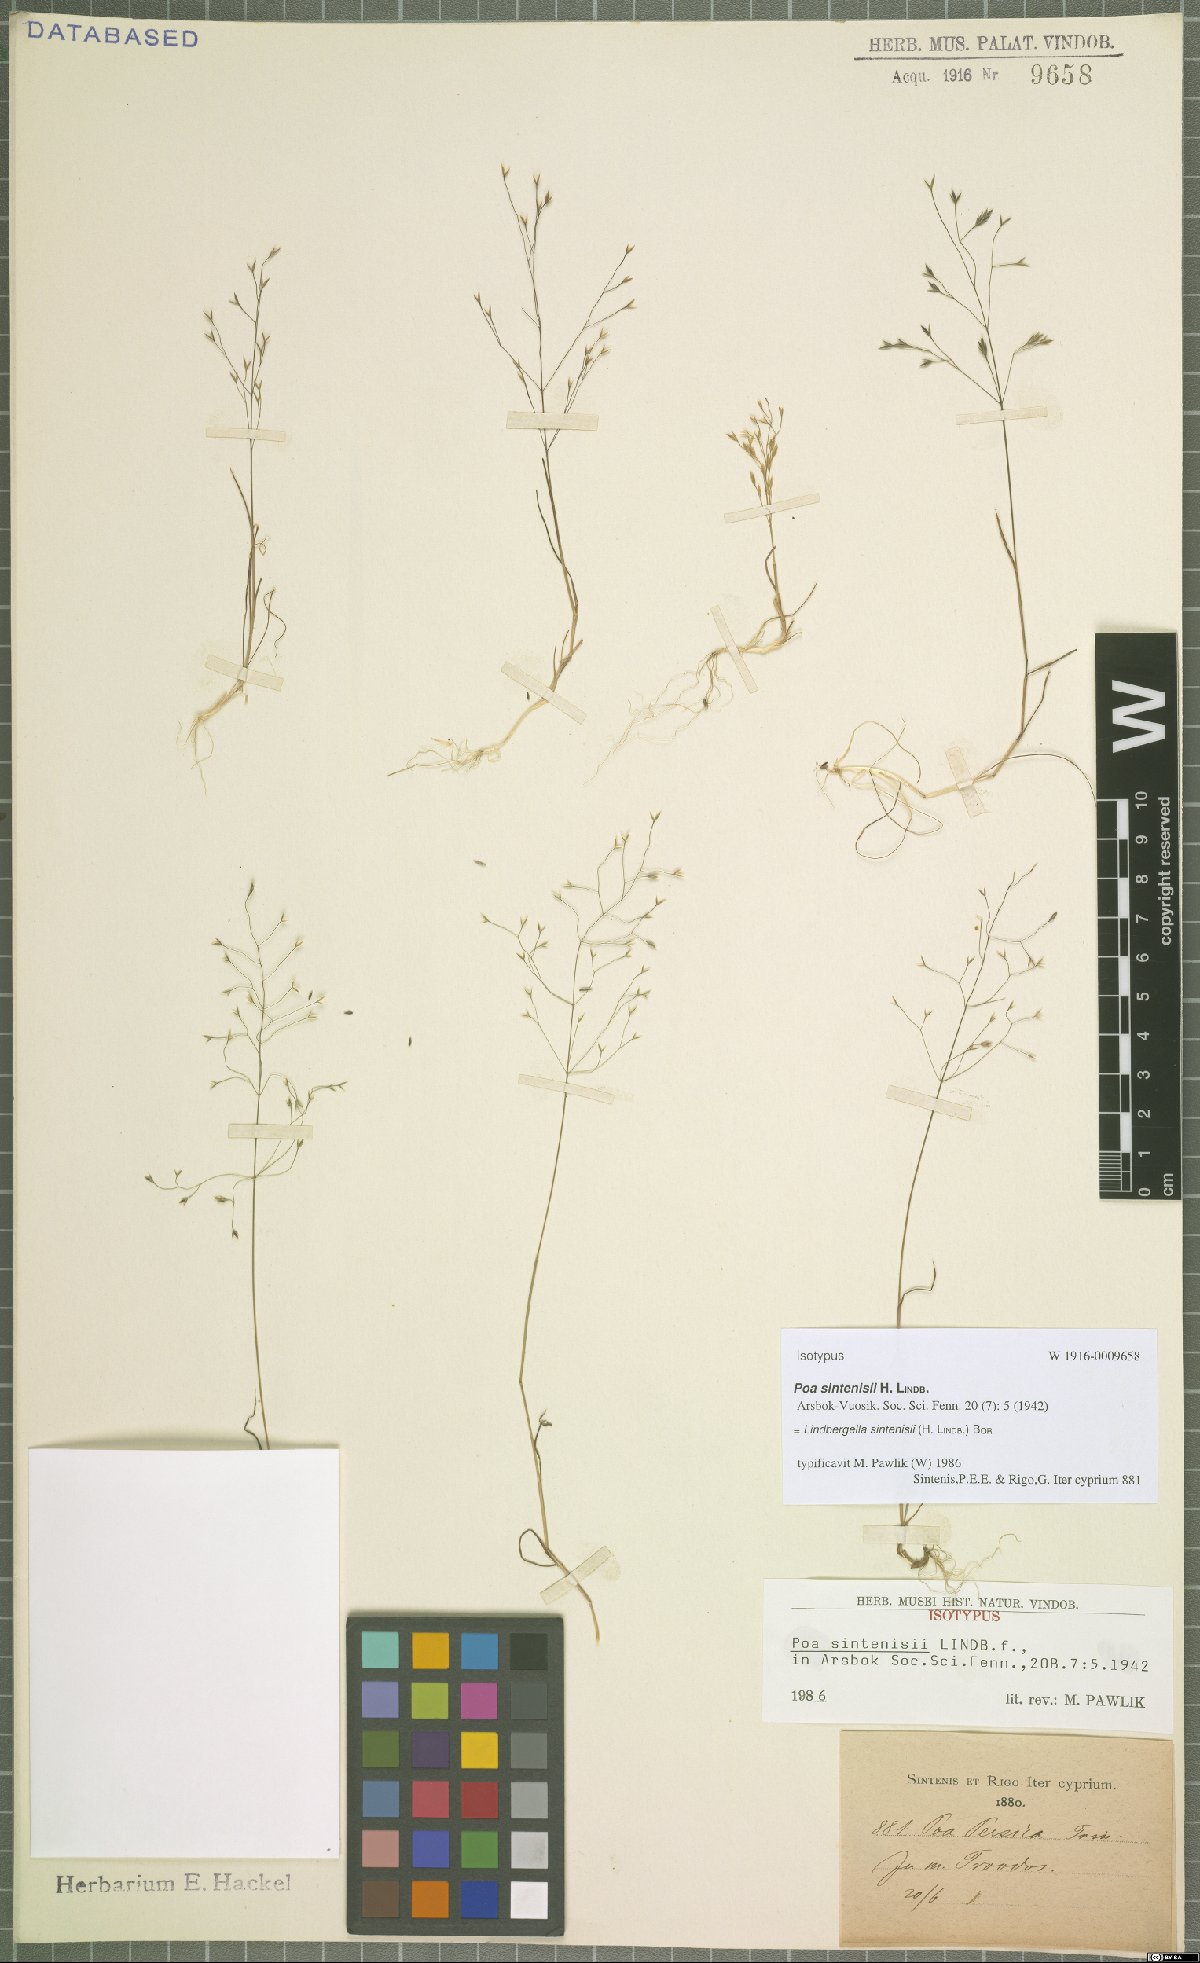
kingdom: Plantae
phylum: Tracheophyta
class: Liliopsida
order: Poales
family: Poaceae
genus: Poa
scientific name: Poa sintenisii
